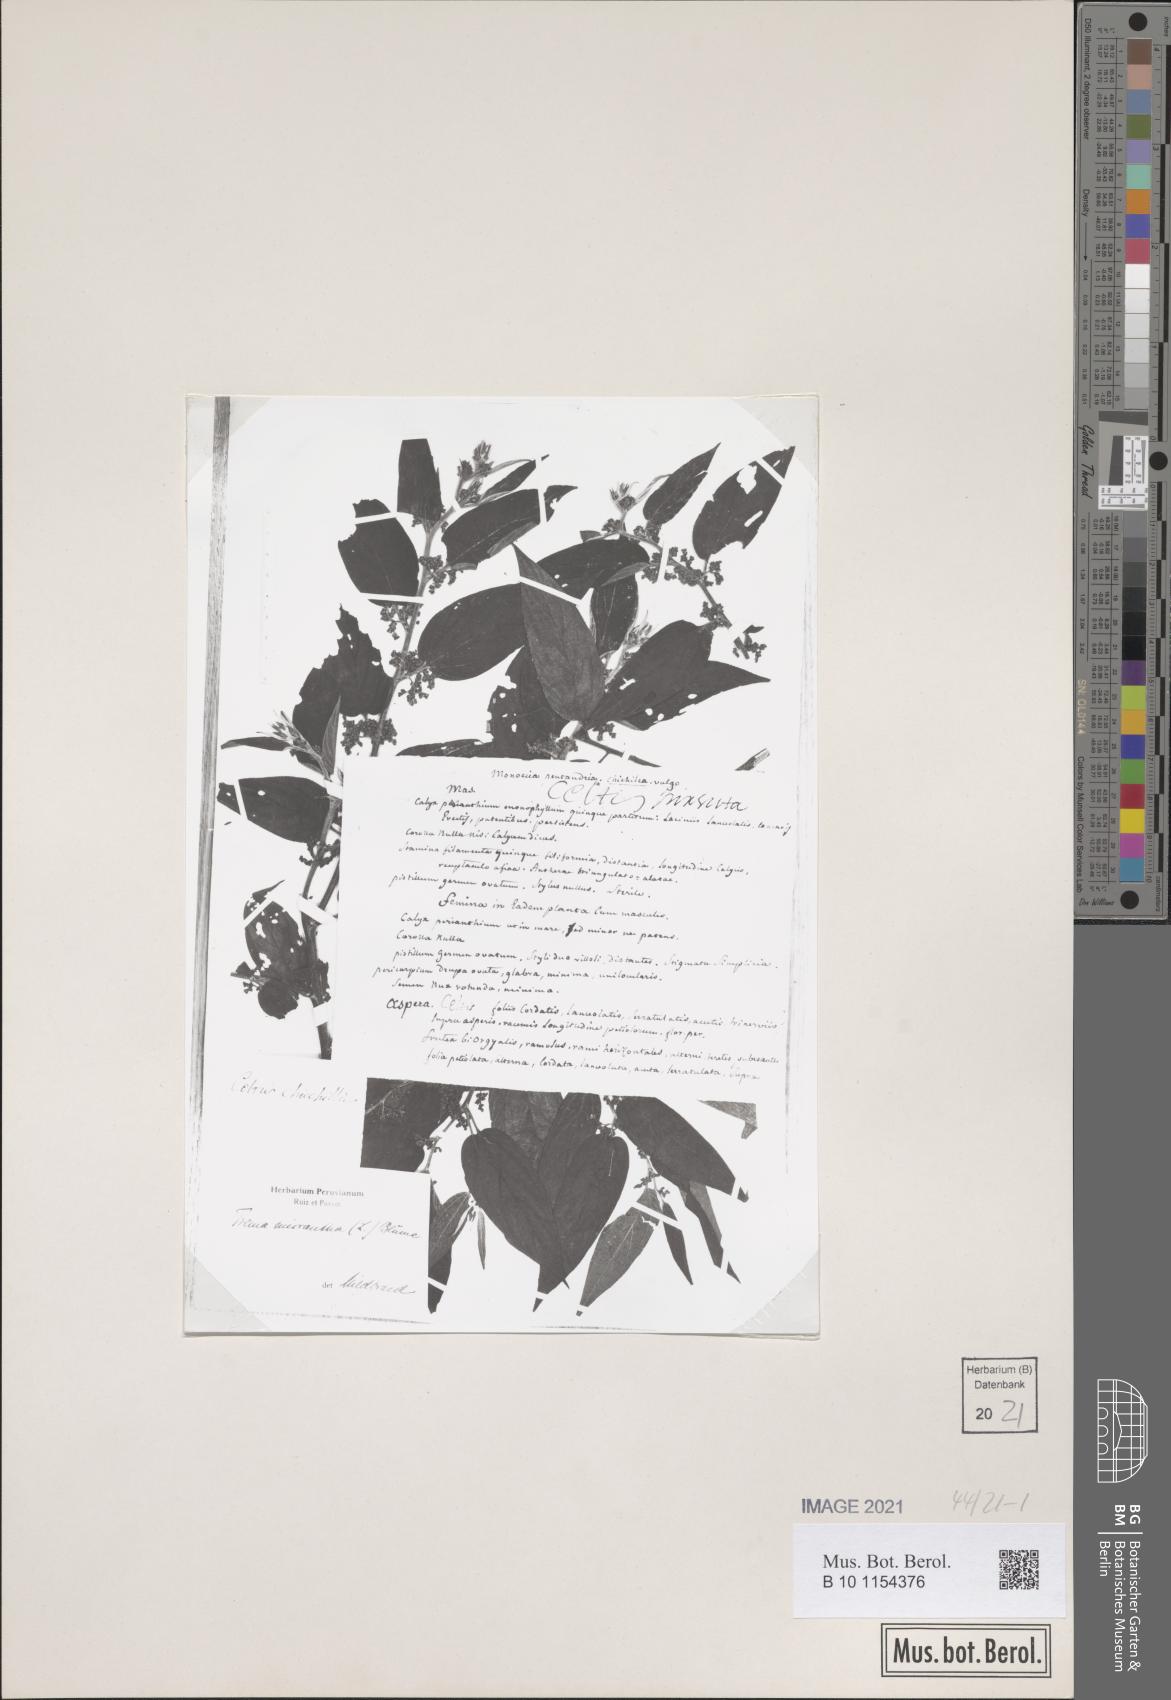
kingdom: Plantae
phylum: Tracheophyta
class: Magnoliopsida
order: Rosales
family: Cannabaceae
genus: Trema
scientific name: Trema micranthum
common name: Jamaican nettletree
